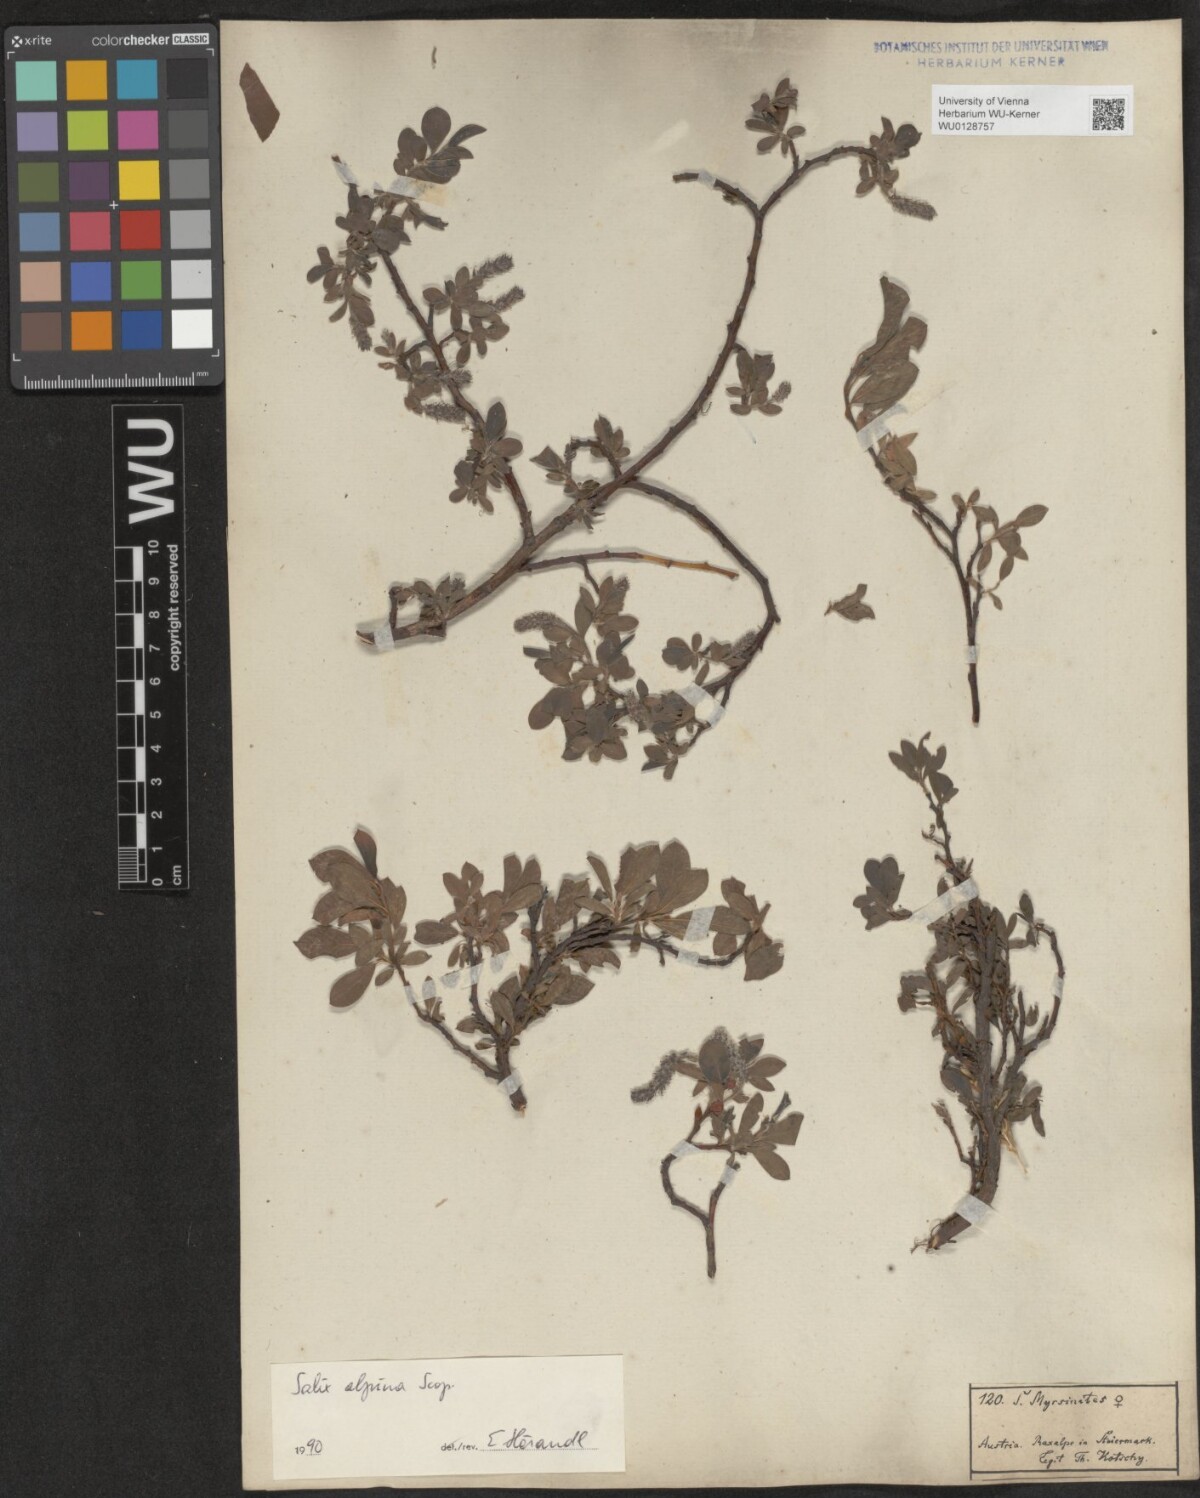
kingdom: Plantae
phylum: Tracheophyta
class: Magnoliopsida
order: Malpighiales
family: Salicaceae
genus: Salix
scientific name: Salix alpina
